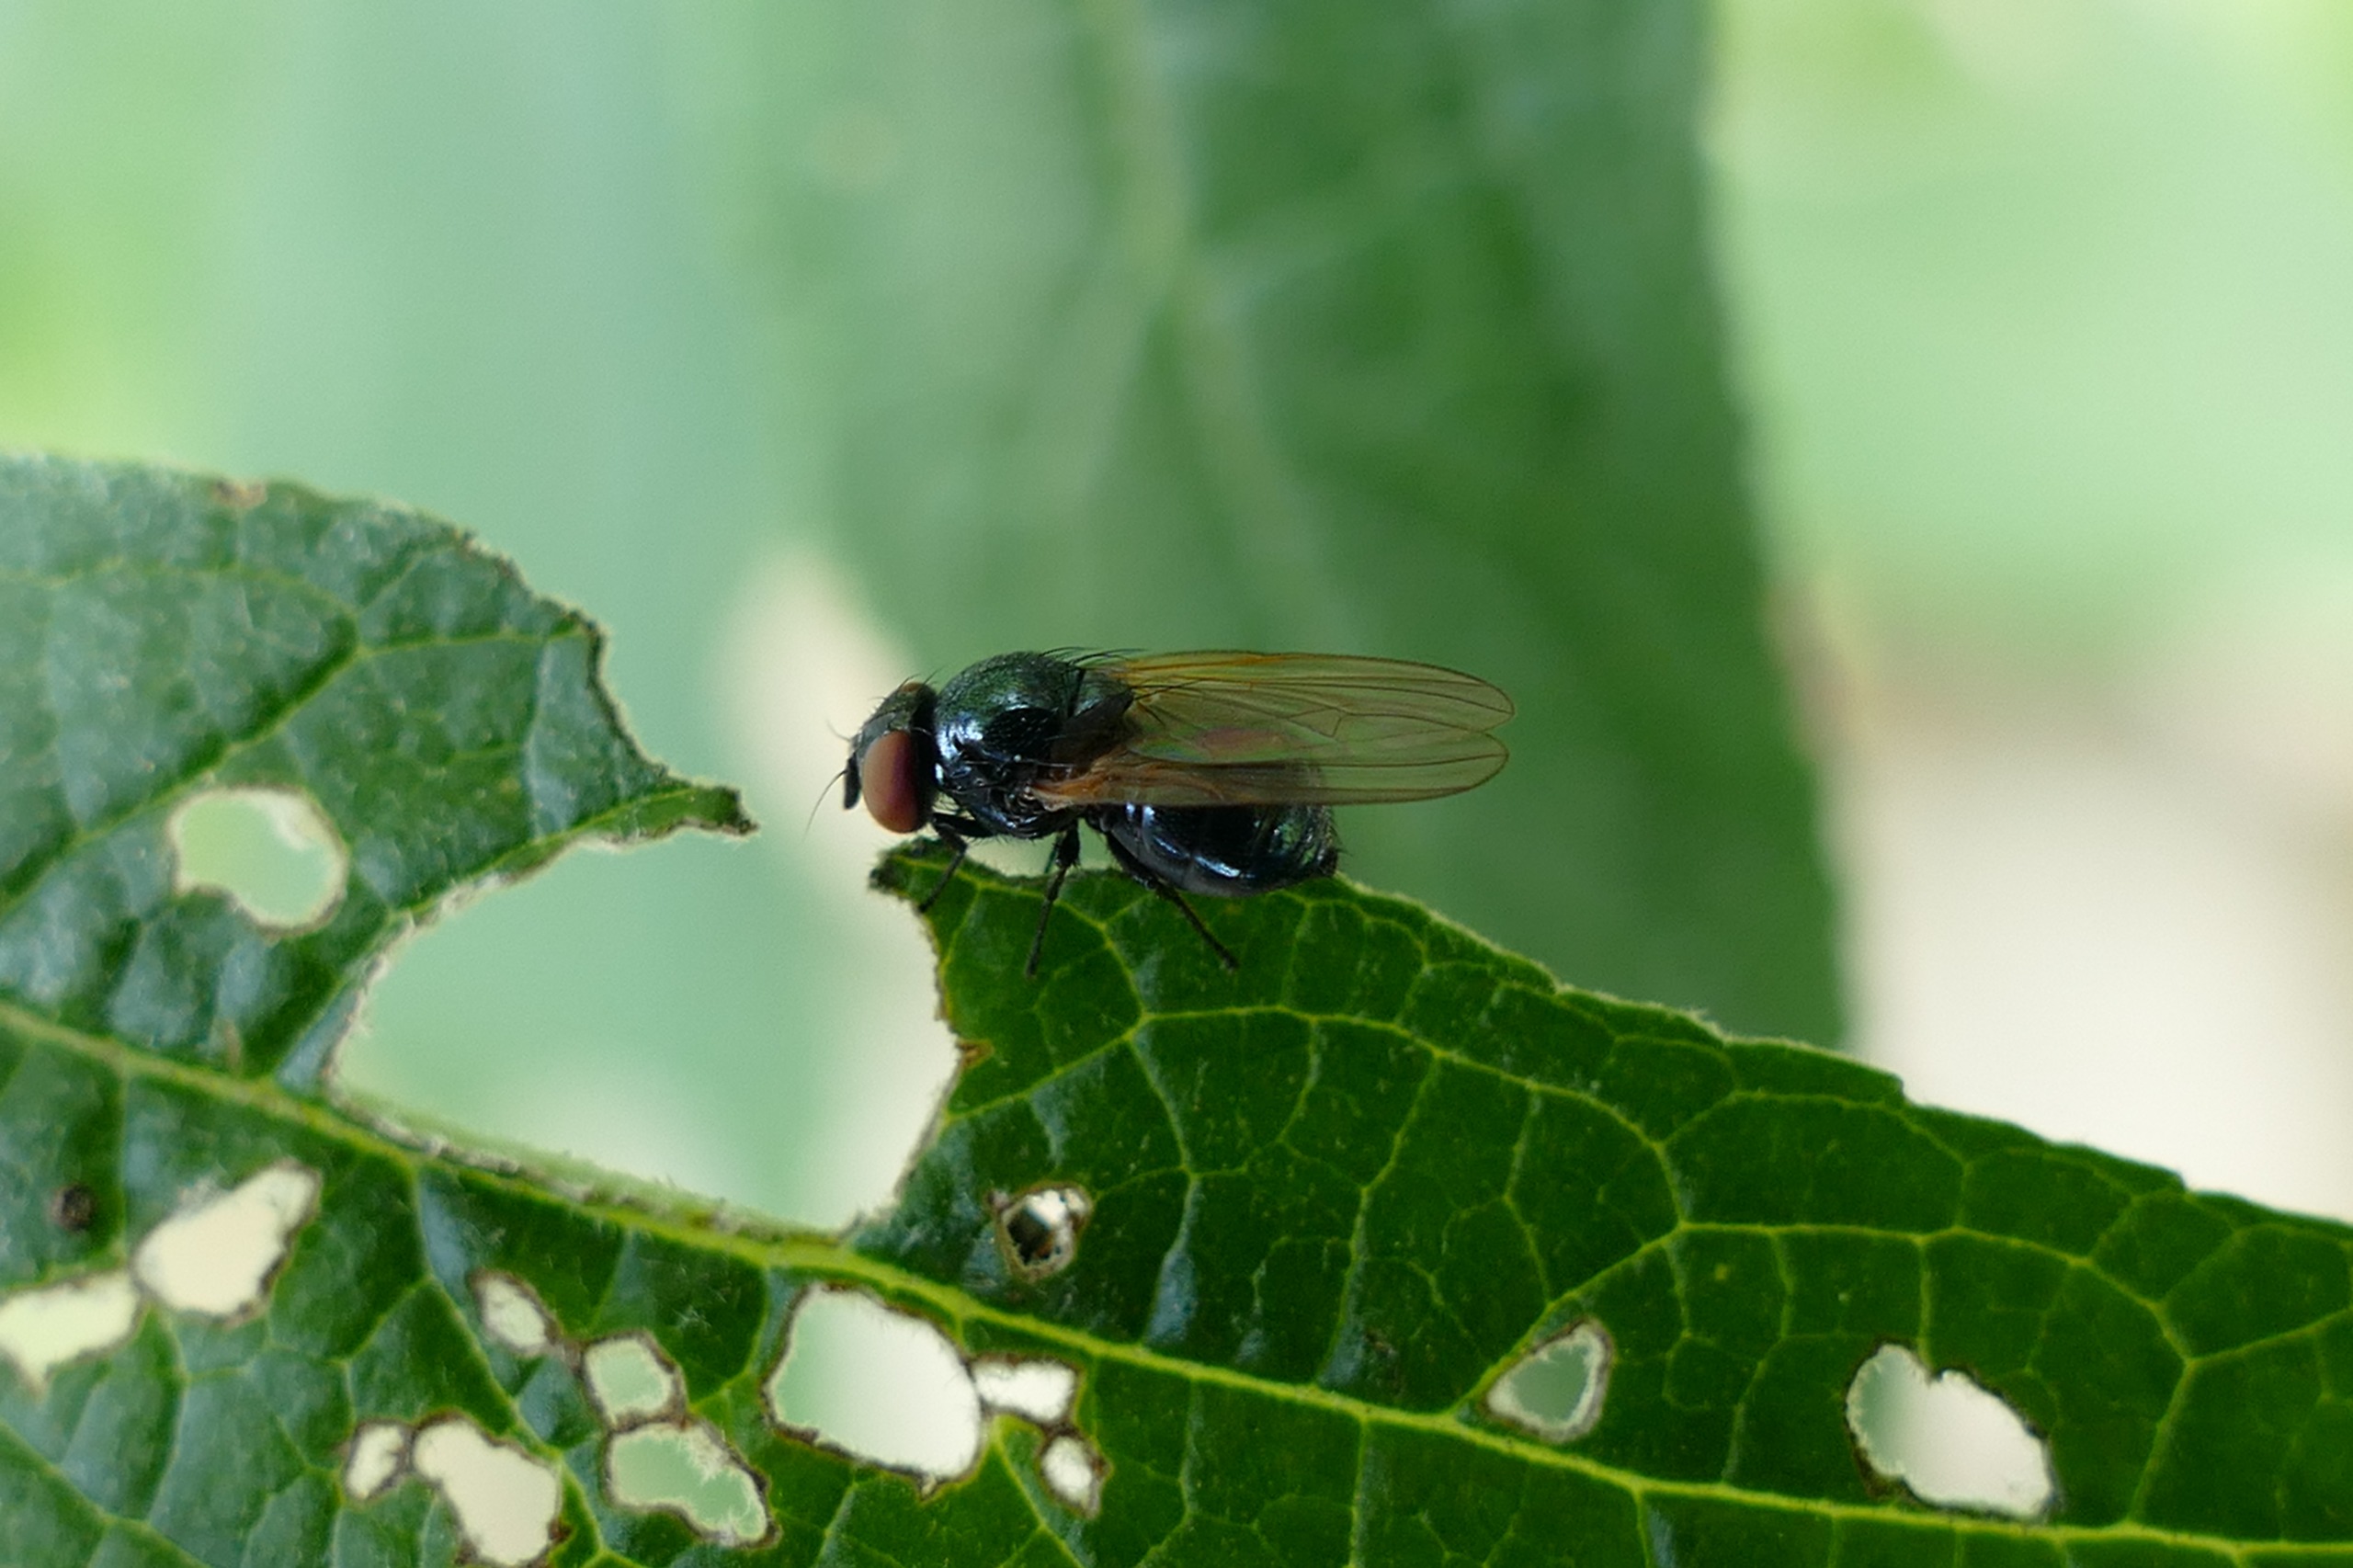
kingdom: Animalia
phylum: Arthropoda
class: Insecta
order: Diptera
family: Lonchaeidae
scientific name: Lonchaeidae
